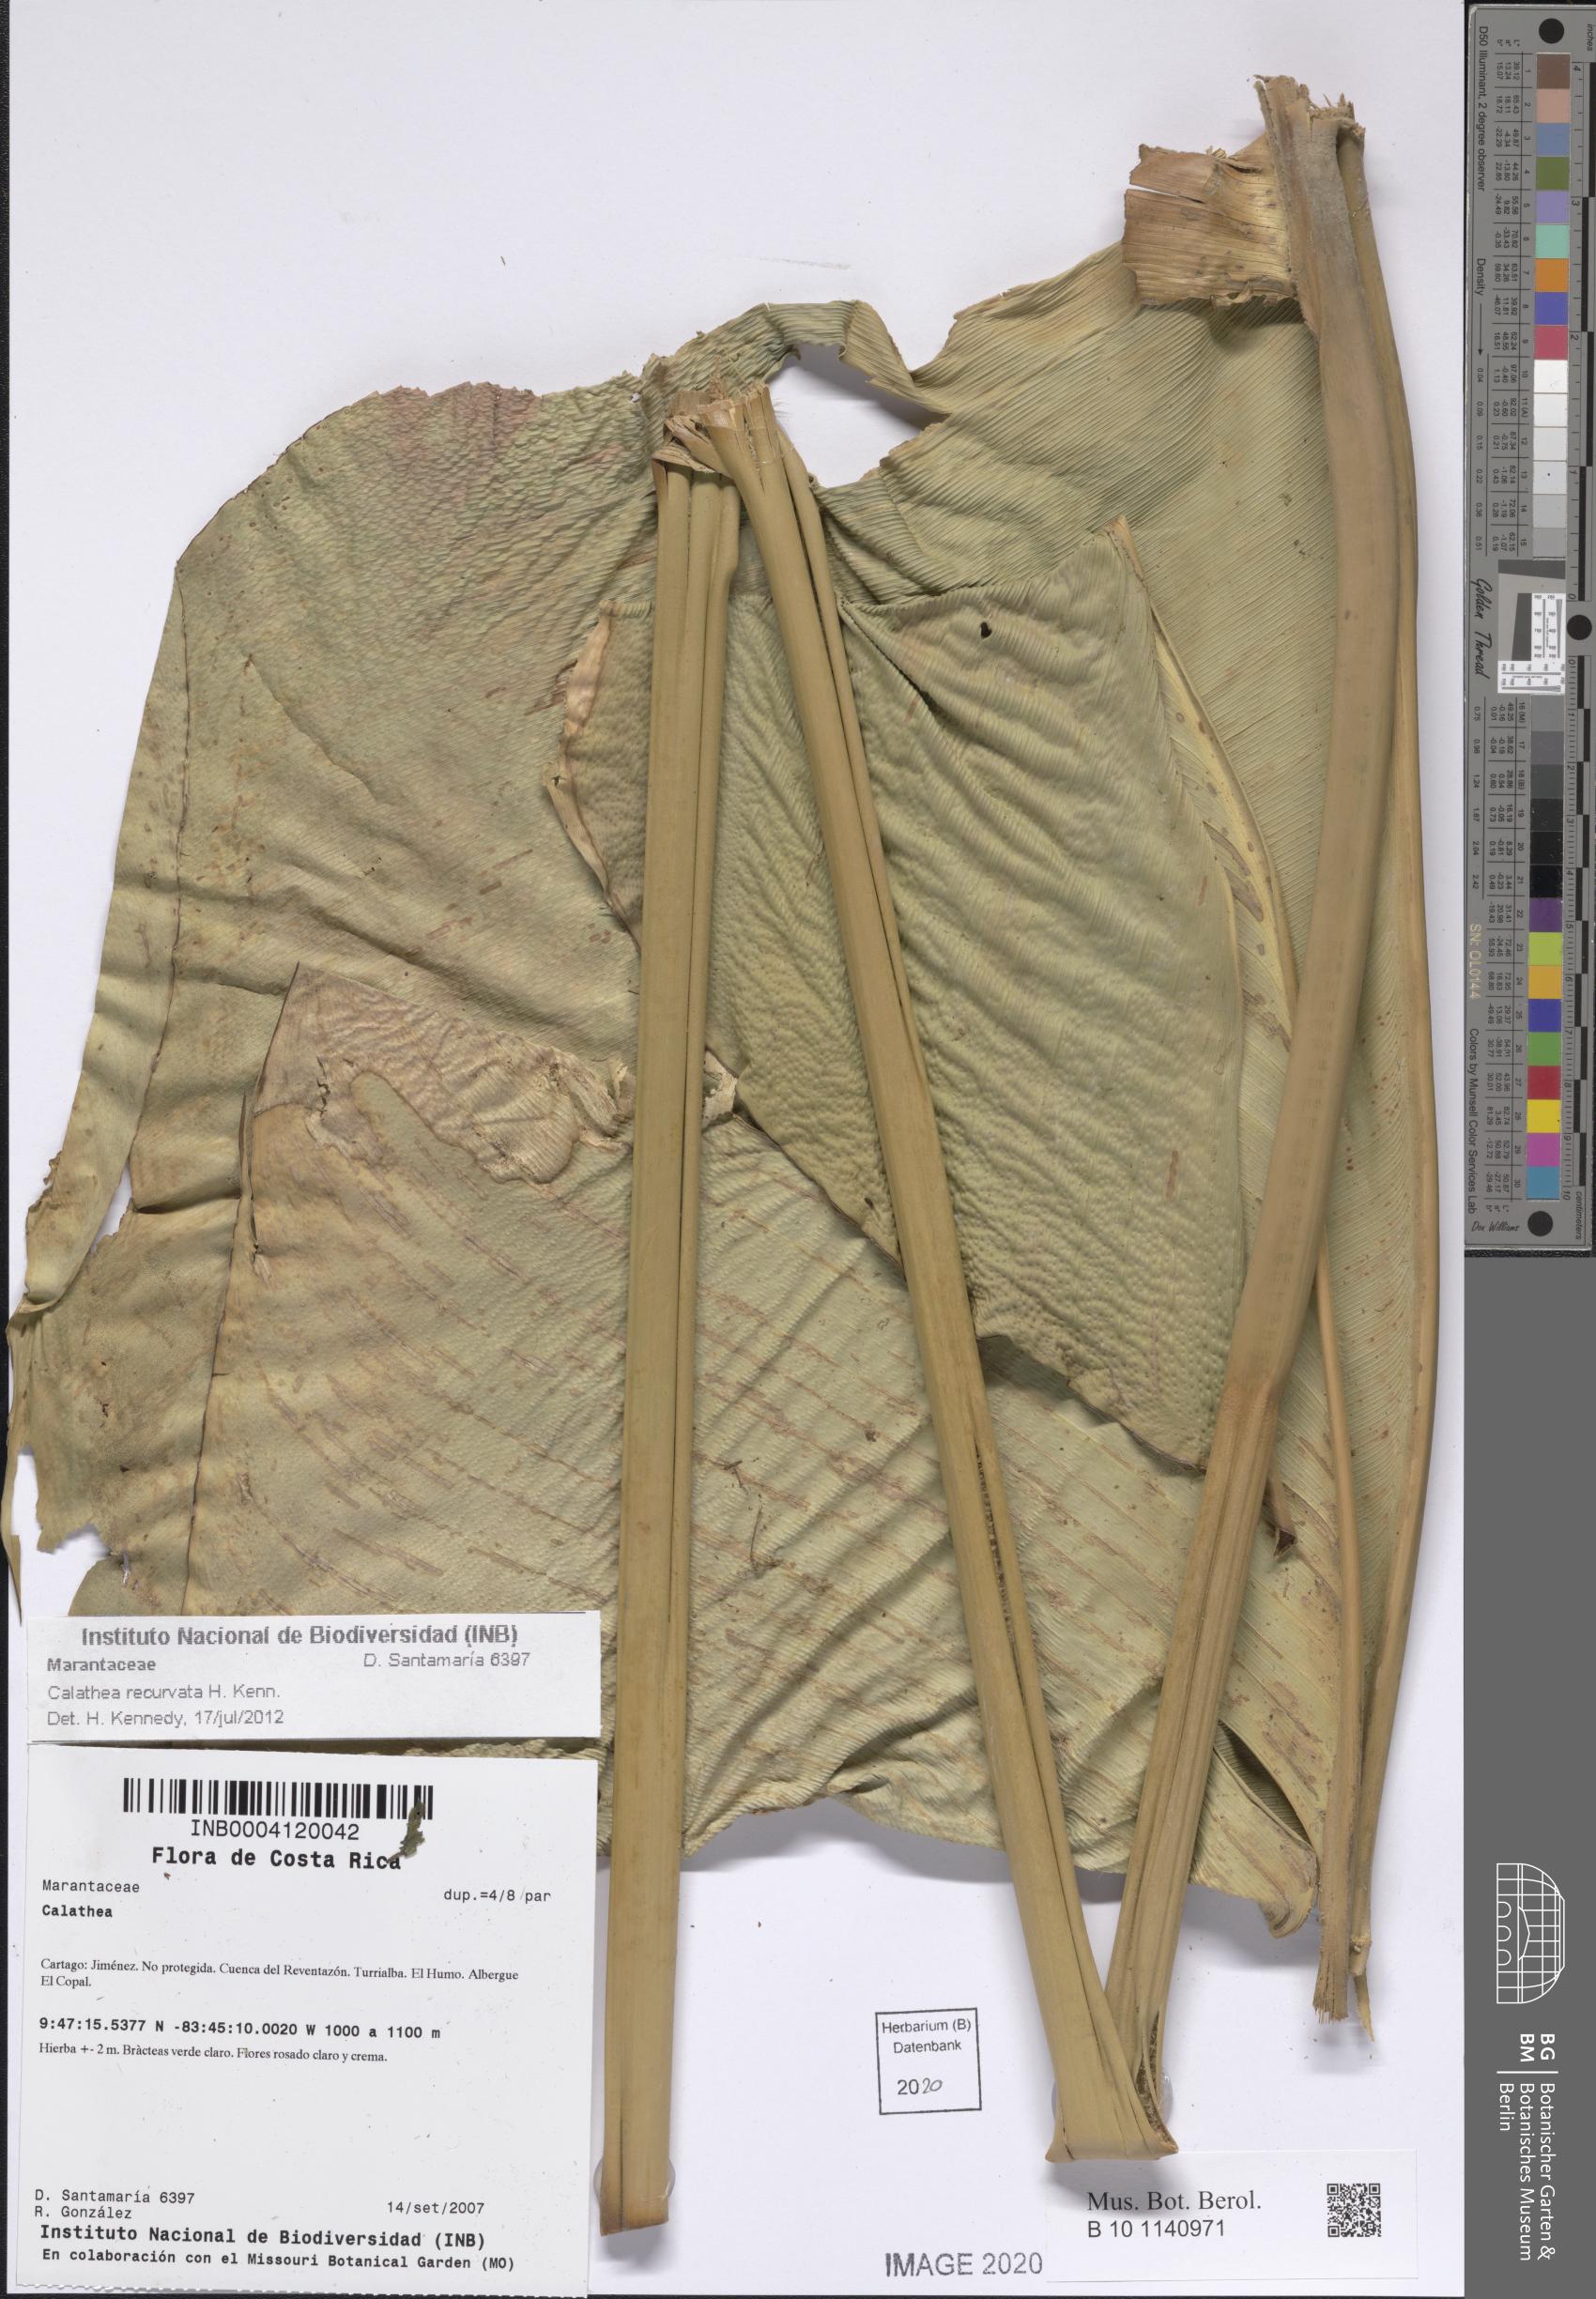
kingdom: Plantae
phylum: Tracheophyta
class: Liliopsida
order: Zingiberales
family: Marantaceae
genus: Calathea
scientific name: Calathea recurvata
